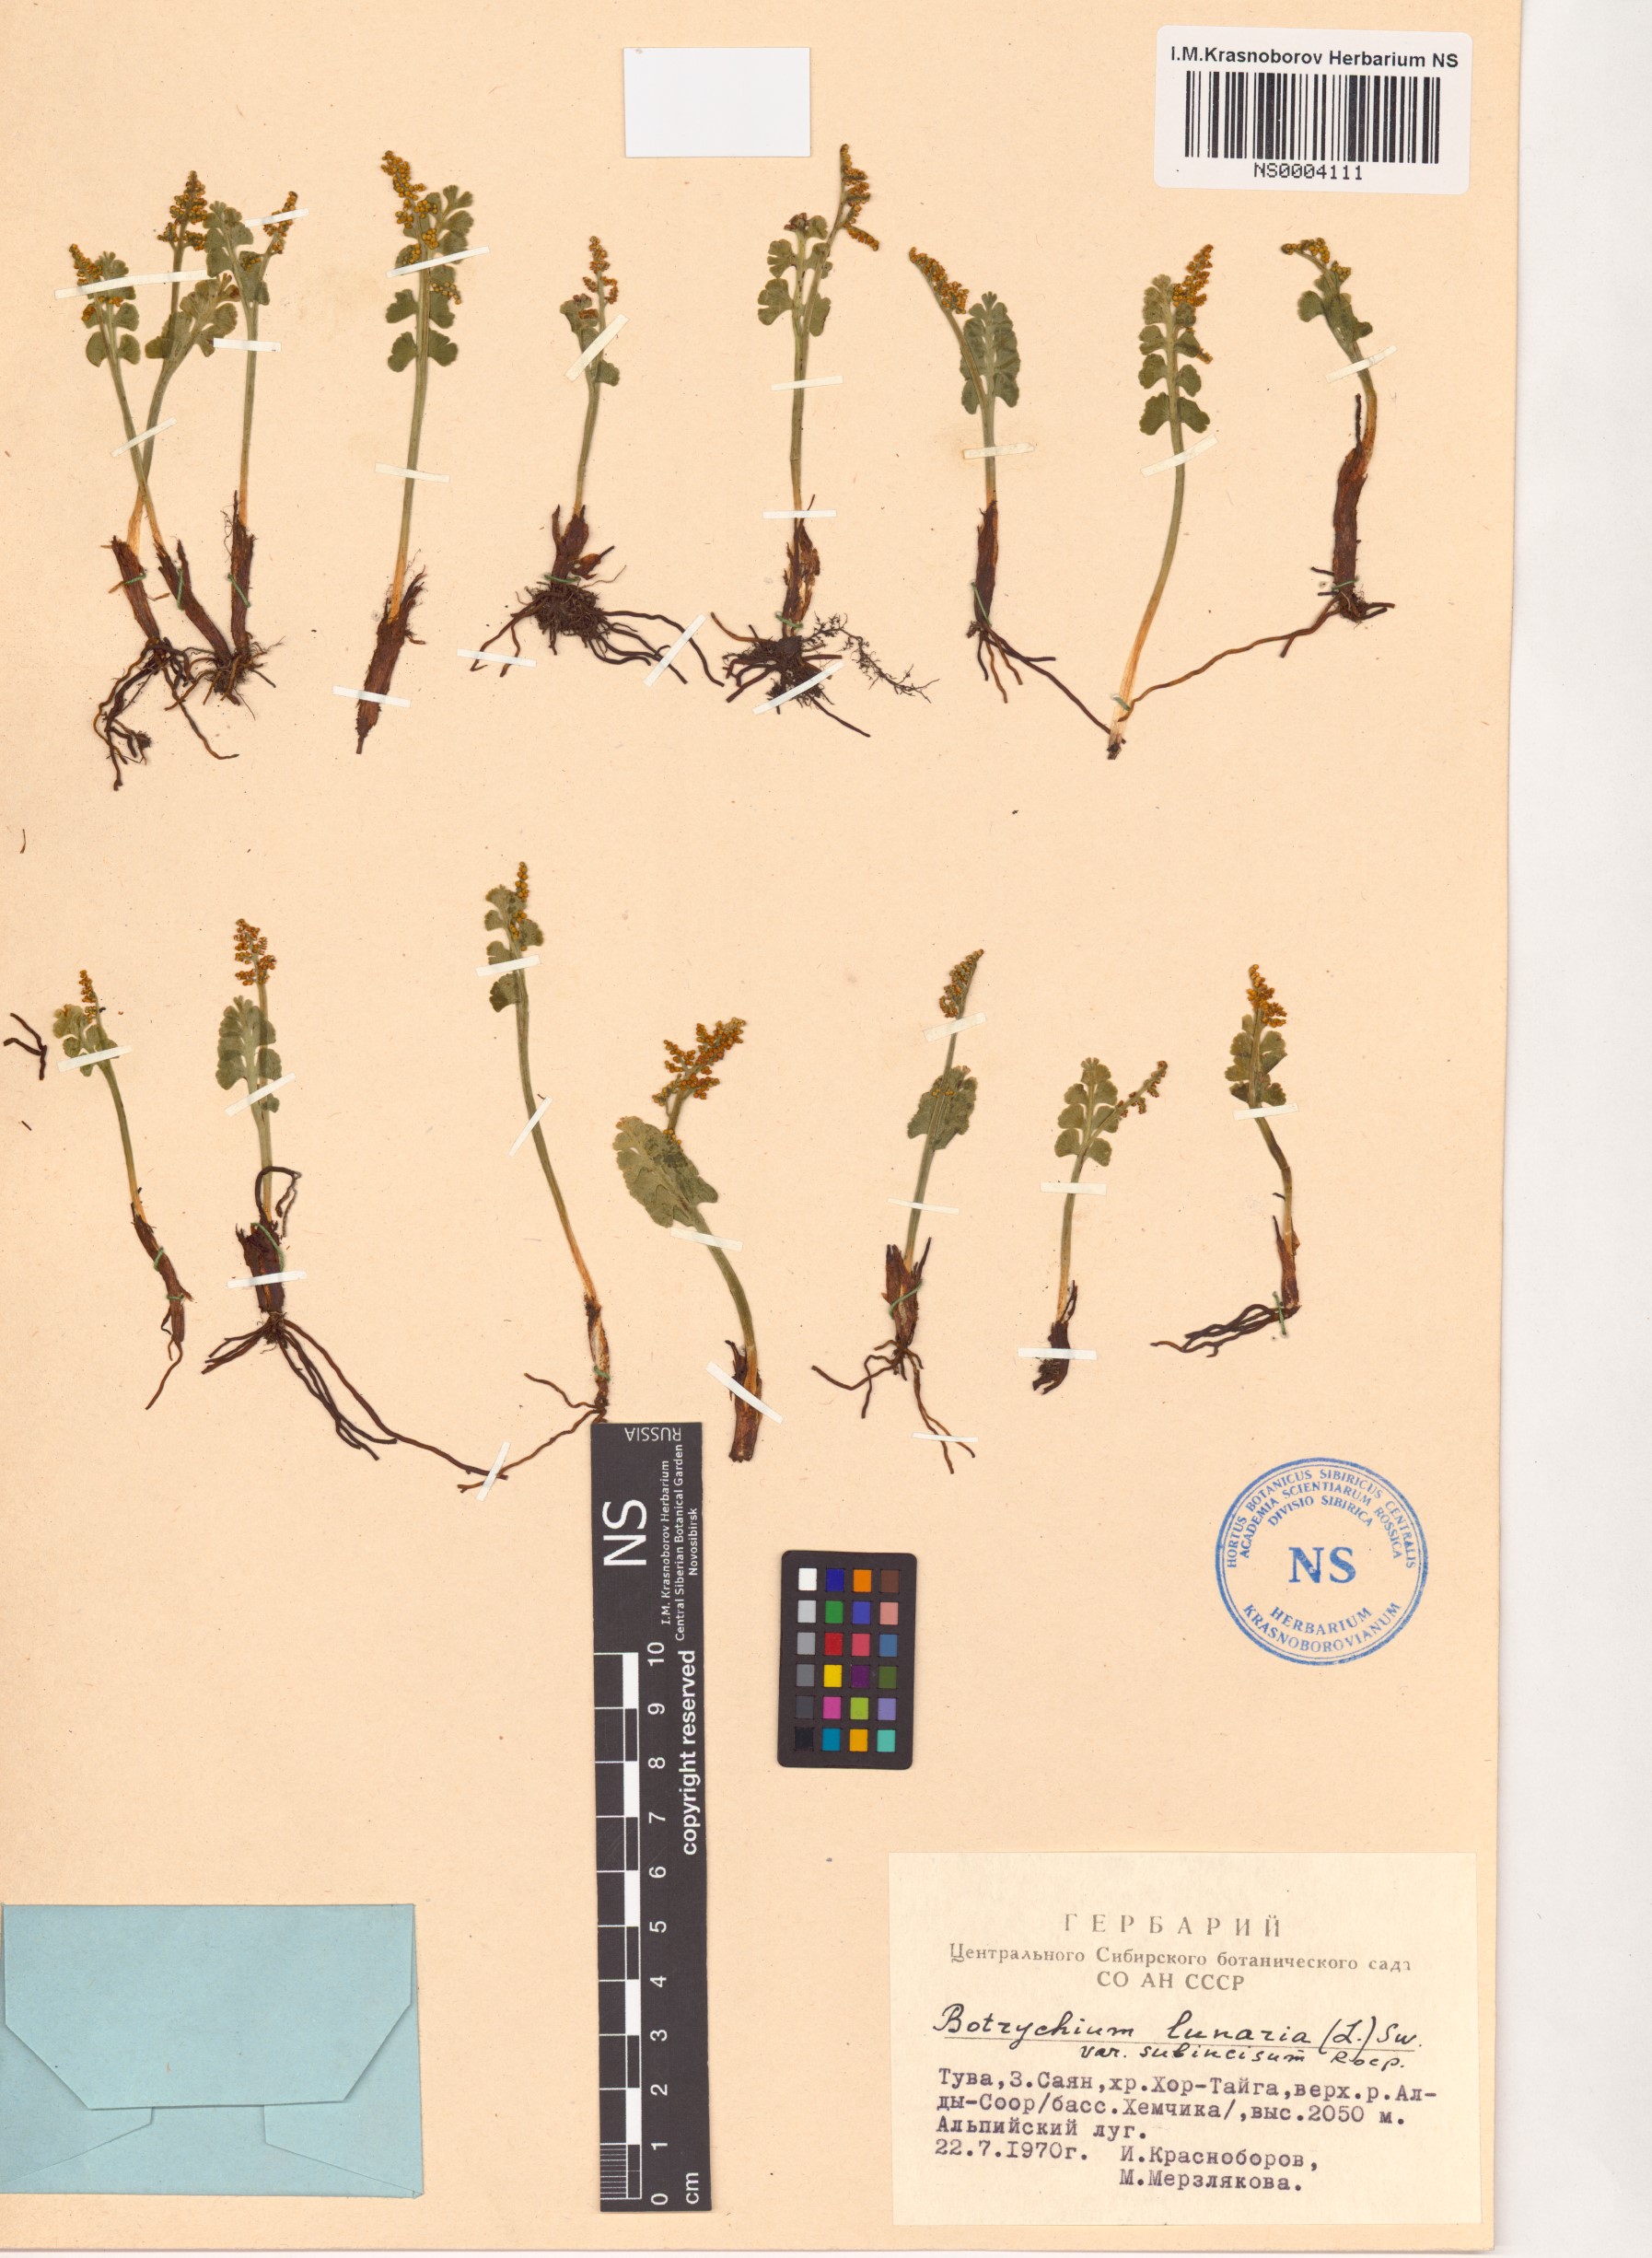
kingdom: Plantae
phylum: Tracheophyta
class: Polypodiopsida
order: Ophioglossales
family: Ophioglossaceae
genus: Botrychium
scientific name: Botrychium lunaria
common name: Moonwort
